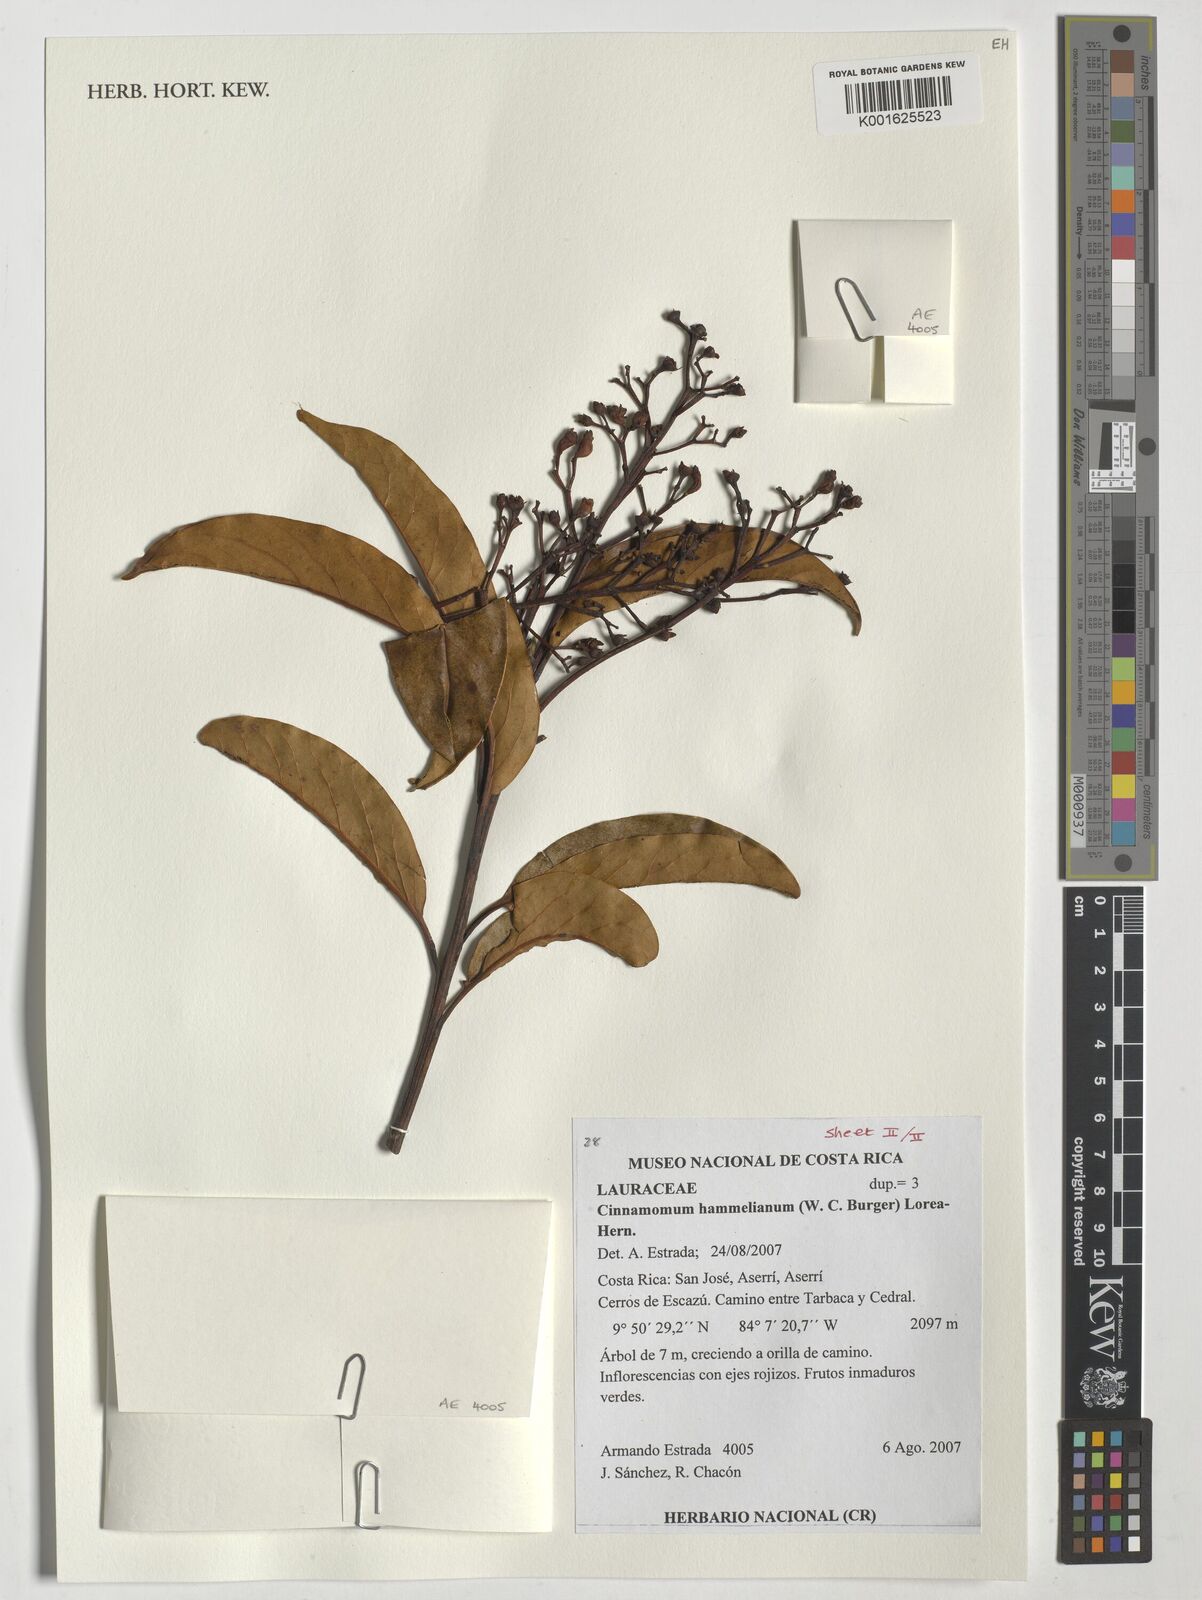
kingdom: Plantae
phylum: Tracheophyta
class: Magnoliopsida
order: Laurales
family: Lauraceae
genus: Cinnamomum
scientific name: Cinnamomum
